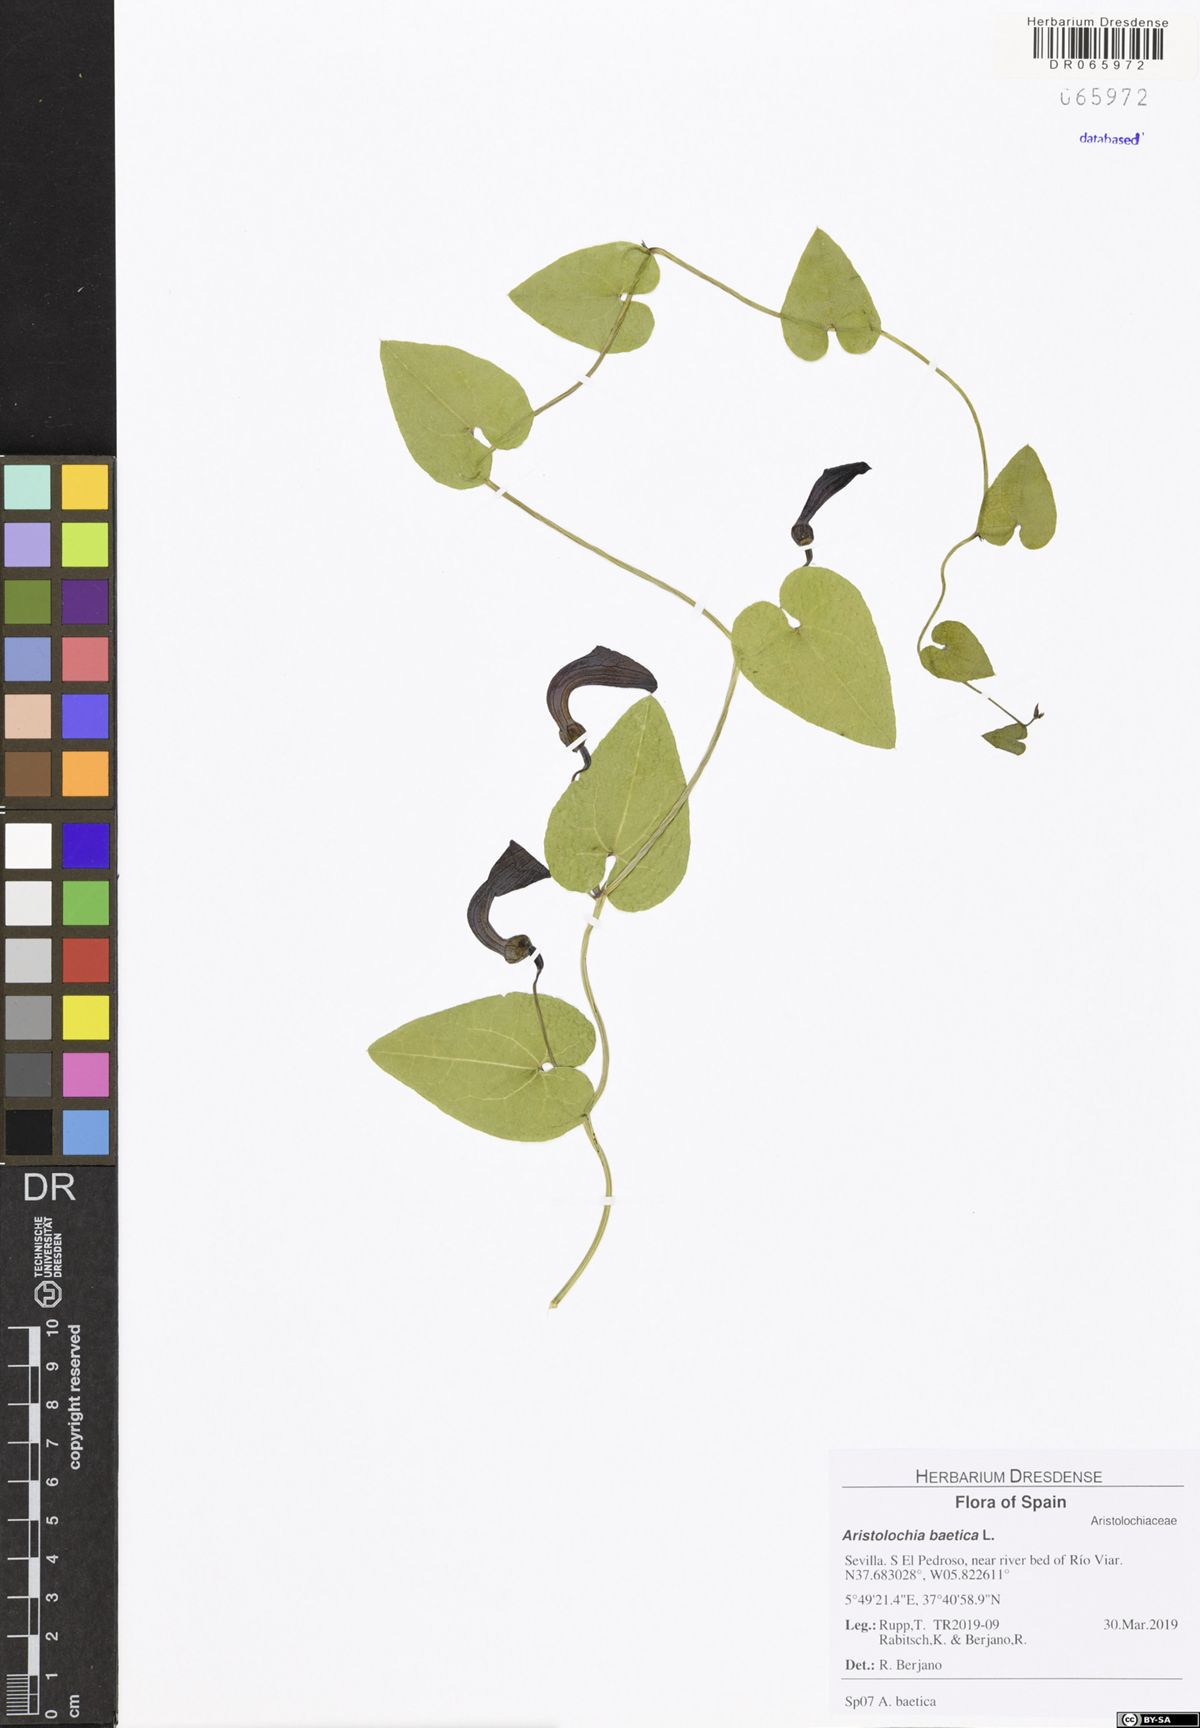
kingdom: Plantae
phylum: Tracheophyta
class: Magnoliopsida
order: Piperales
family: Aristolochiaceae
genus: Aristolochia
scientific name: Aristolochia baetica
